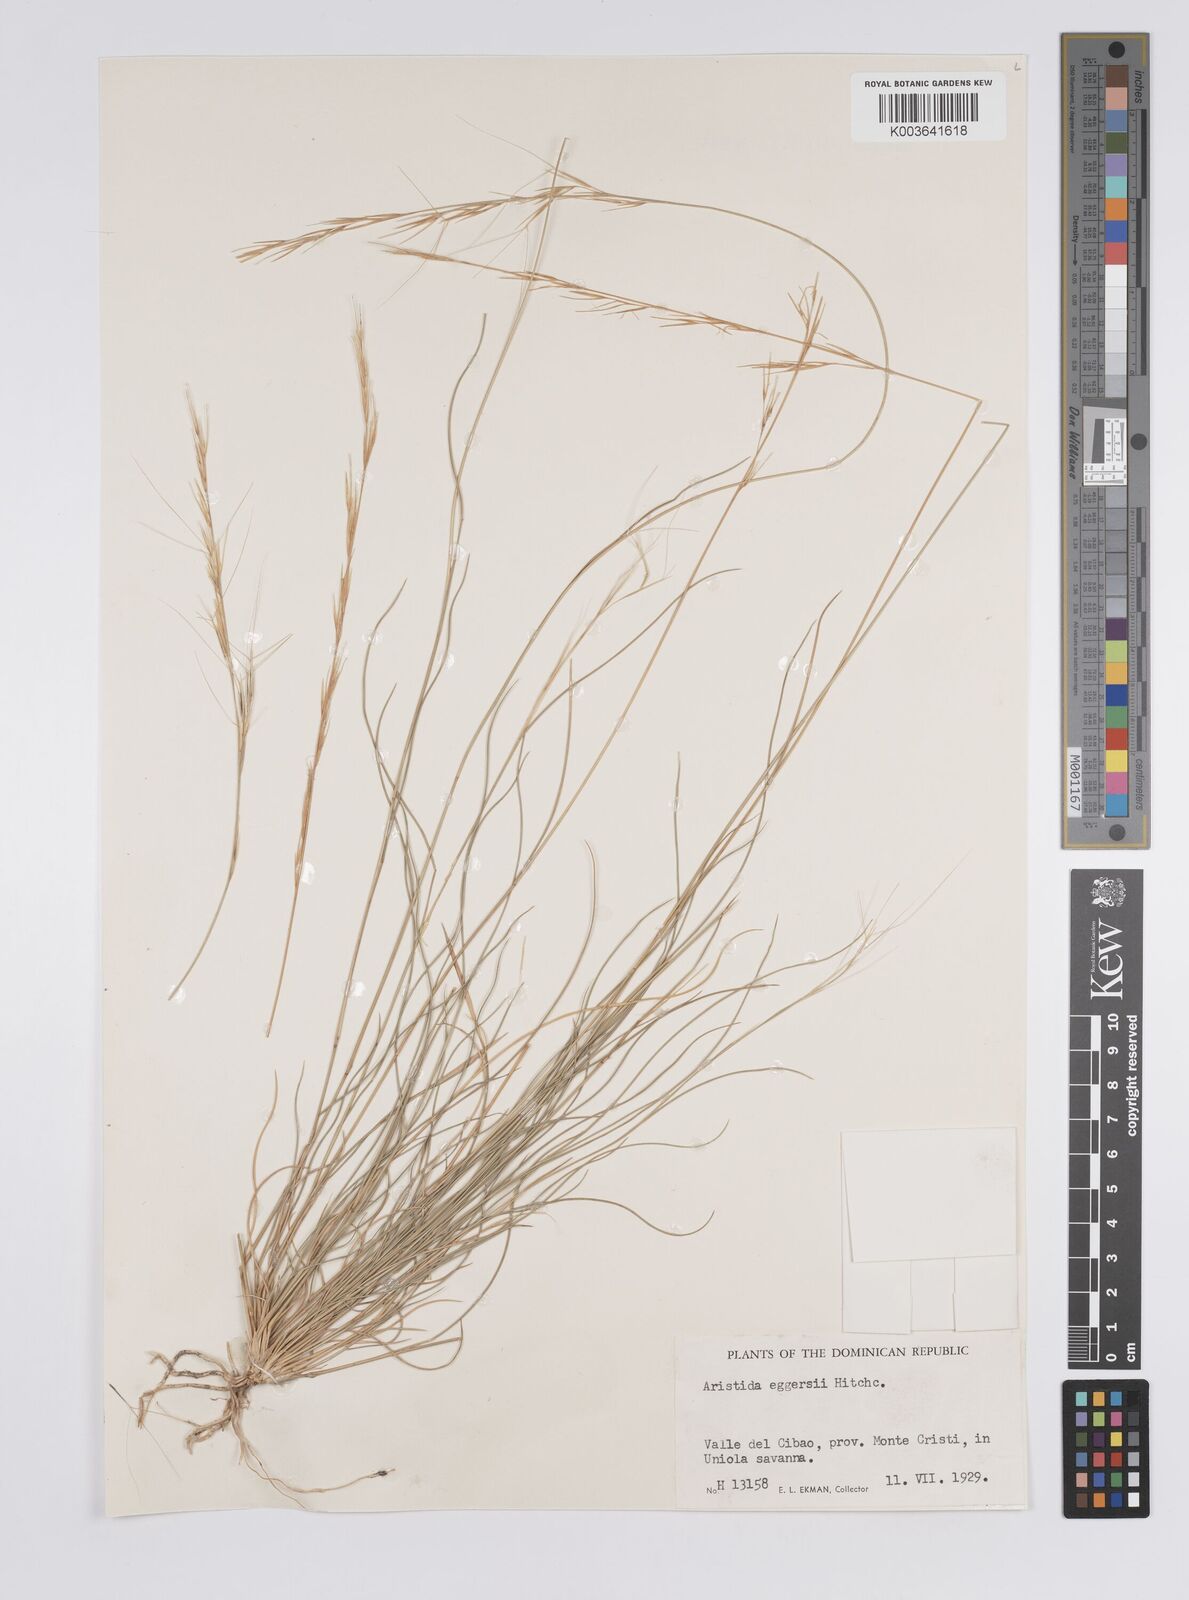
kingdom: Plantae
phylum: Tracheophyta
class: Liliopsida
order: Poales
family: Poaceae
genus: Aristida
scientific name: Aristida purpurea
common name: Purple threeawn
